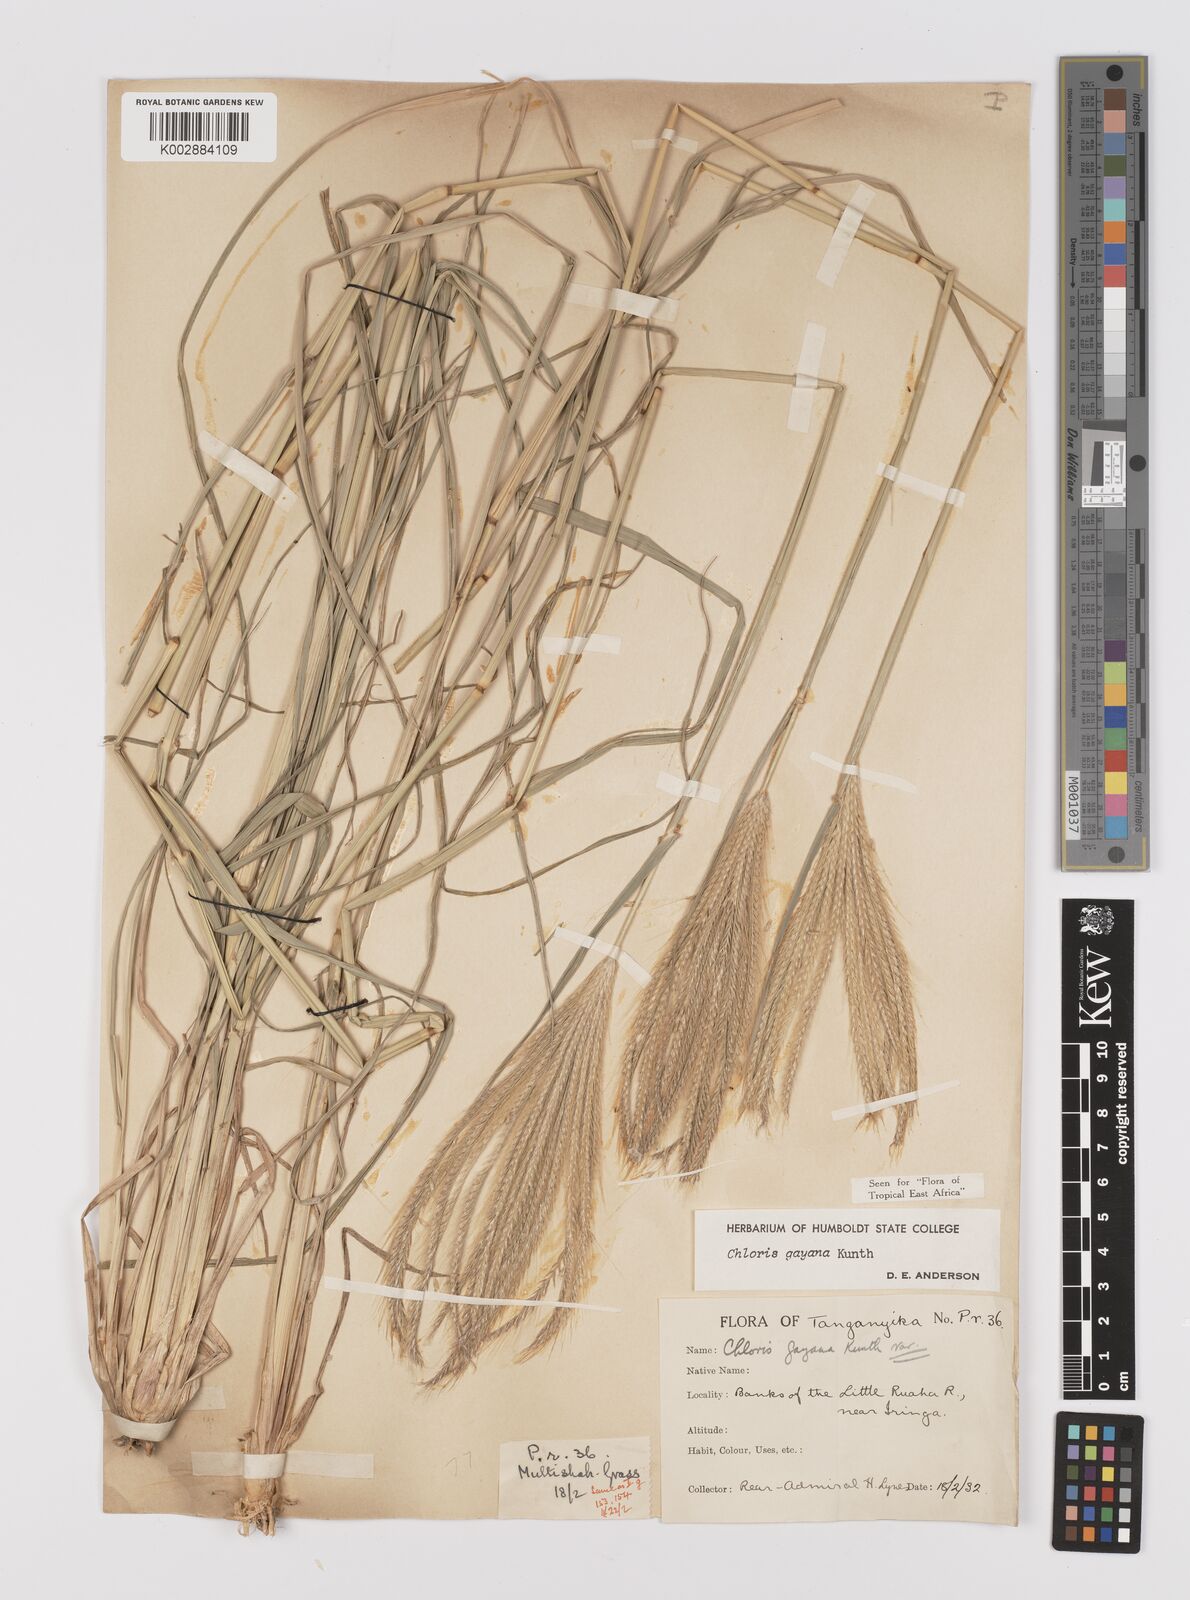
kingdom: Plantae
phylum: Tracheophyta
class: Liliopsida
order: Poales
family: Poaceae
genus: Chloris
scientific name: Chloris gayana
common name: Rhodes grass
